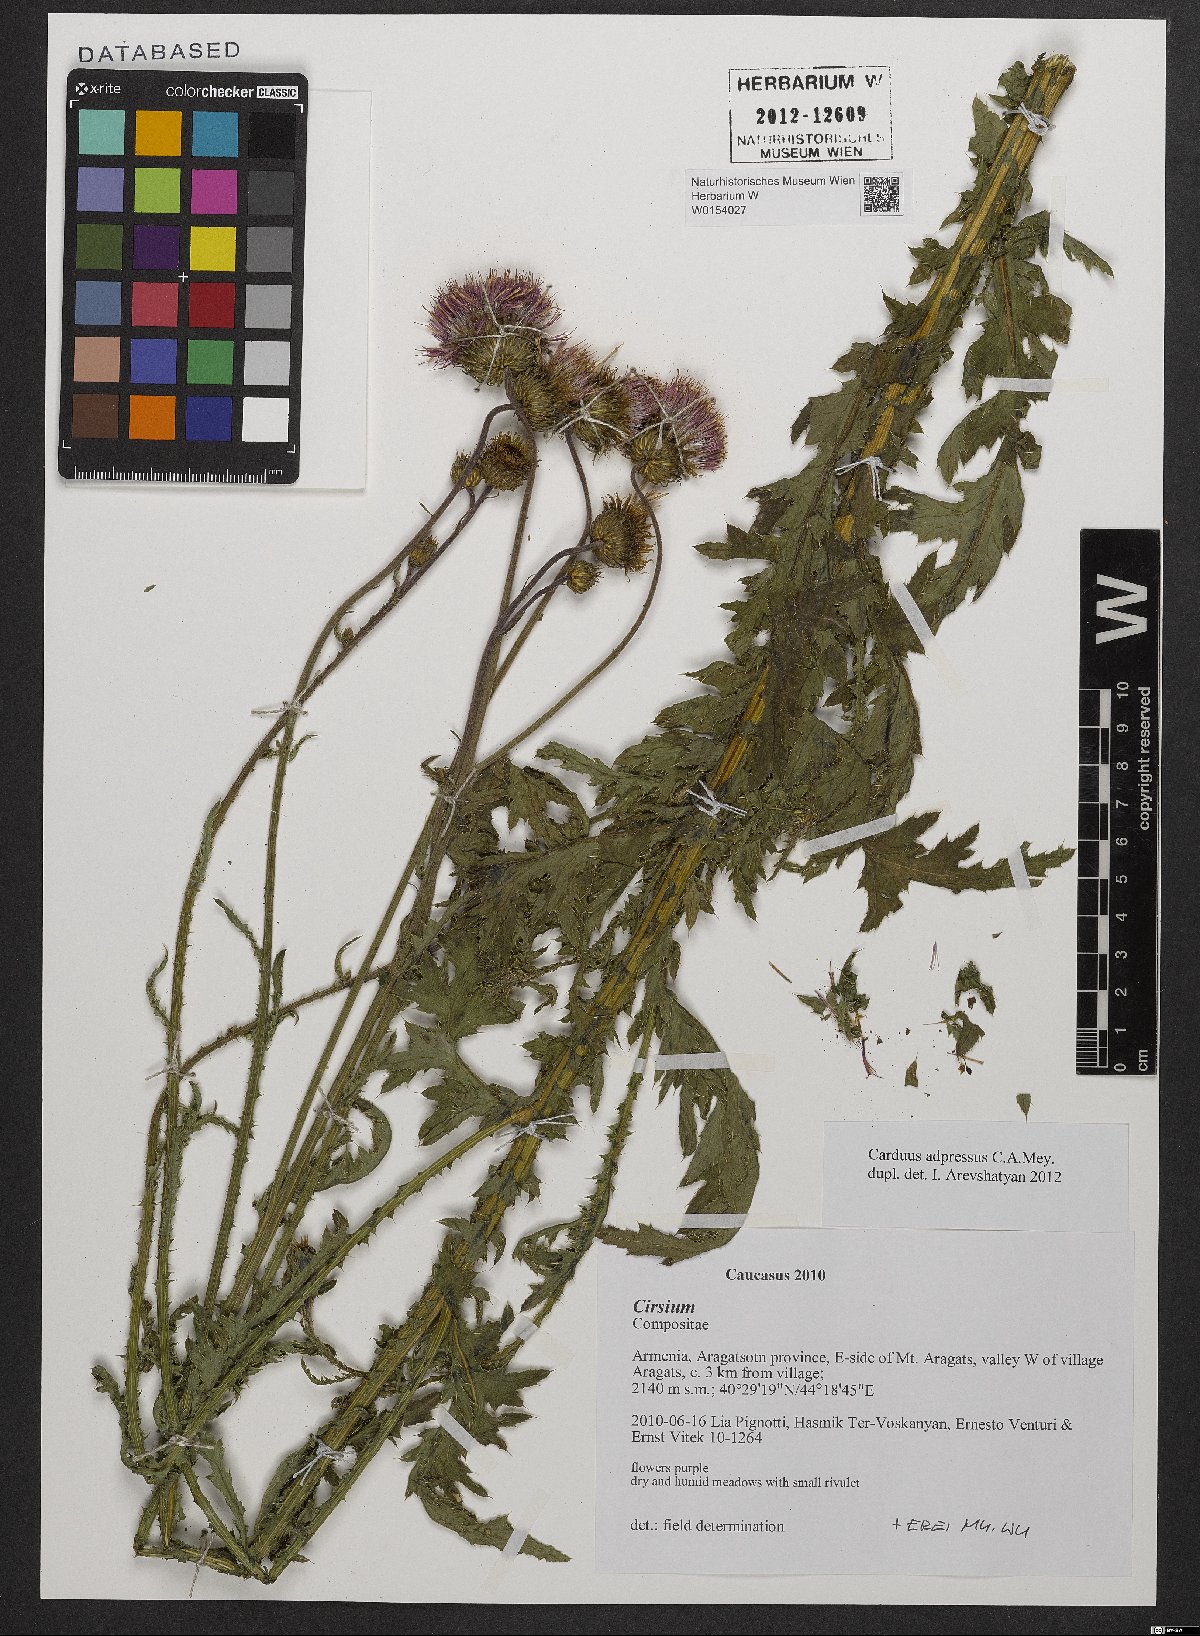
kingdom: Plantae
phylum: Tracheophyta
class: Magnoliopsida
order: Asterales
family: Asteraceae
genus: Carduus
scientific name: Carduus adpressus
